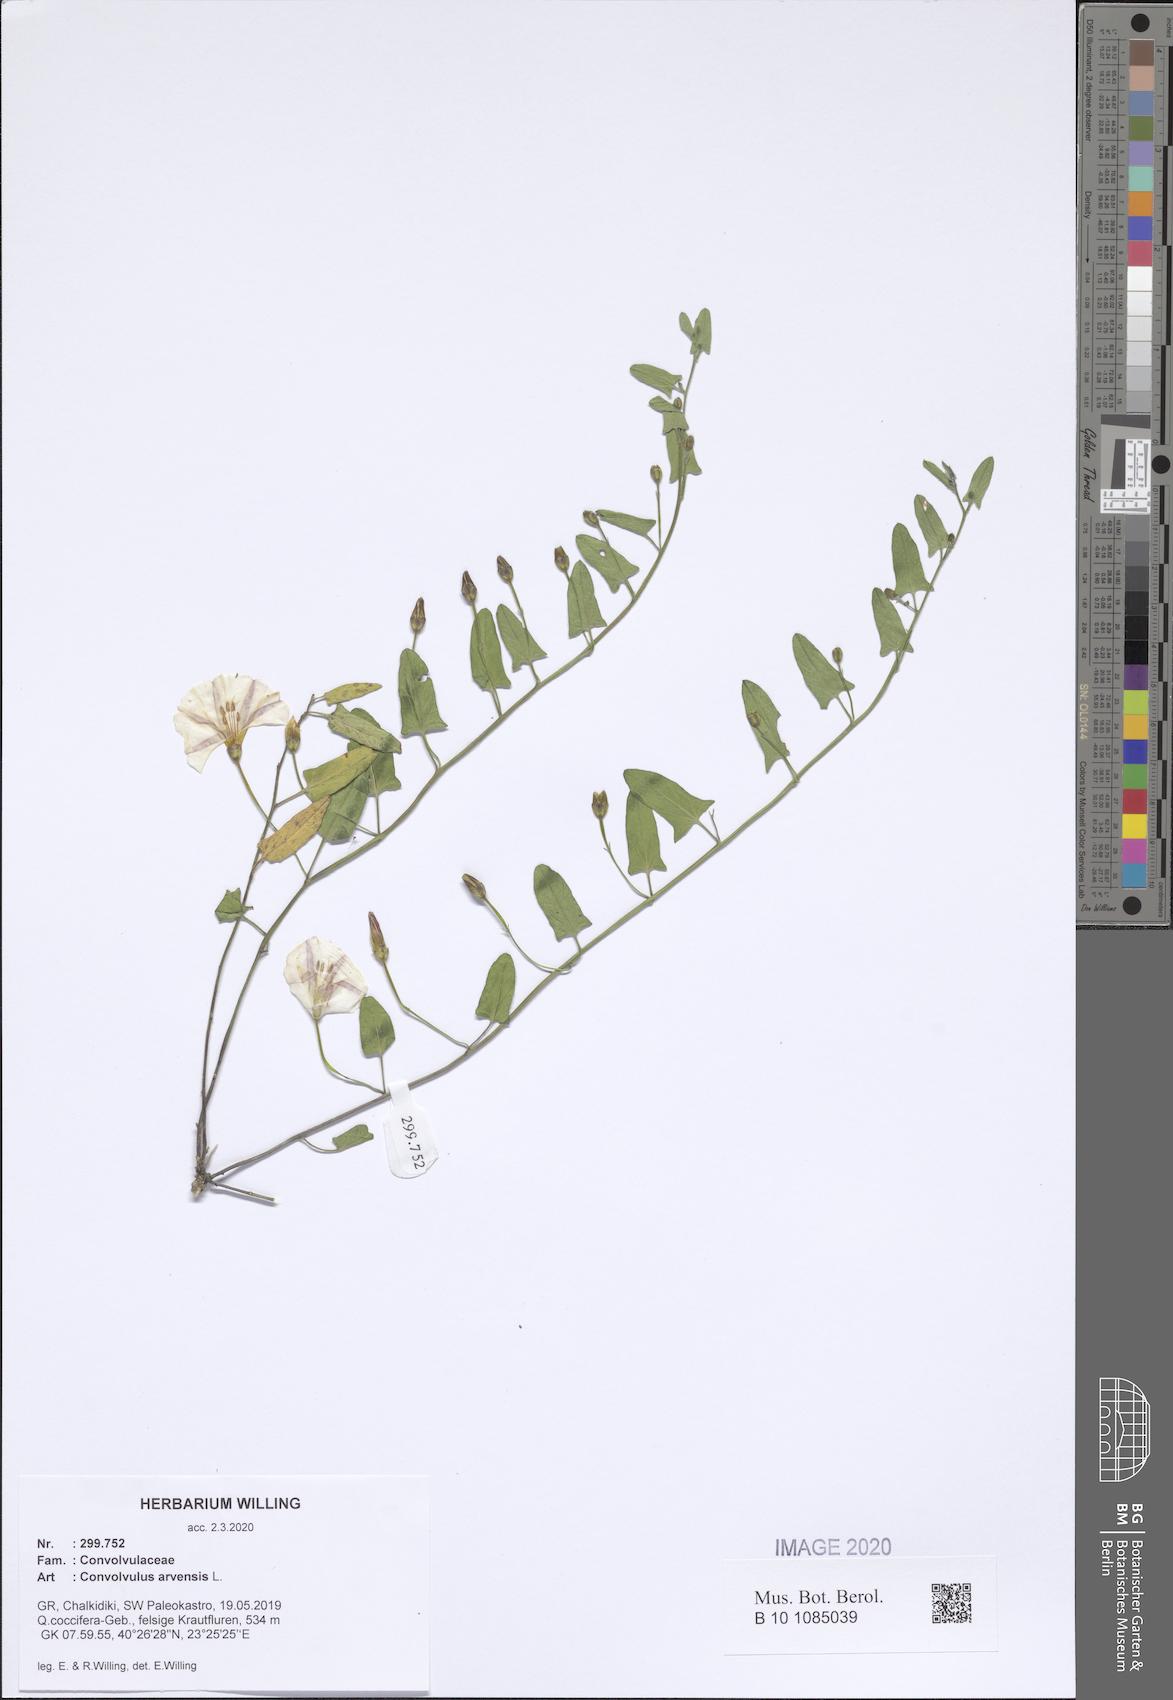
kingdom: Plantae
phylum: Tracheophyta
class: Magnoliopsida
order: Solanales
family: Convolvulaceae
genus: Convolvulus
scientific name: Convolvulus arvensis
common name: Field bindweed
